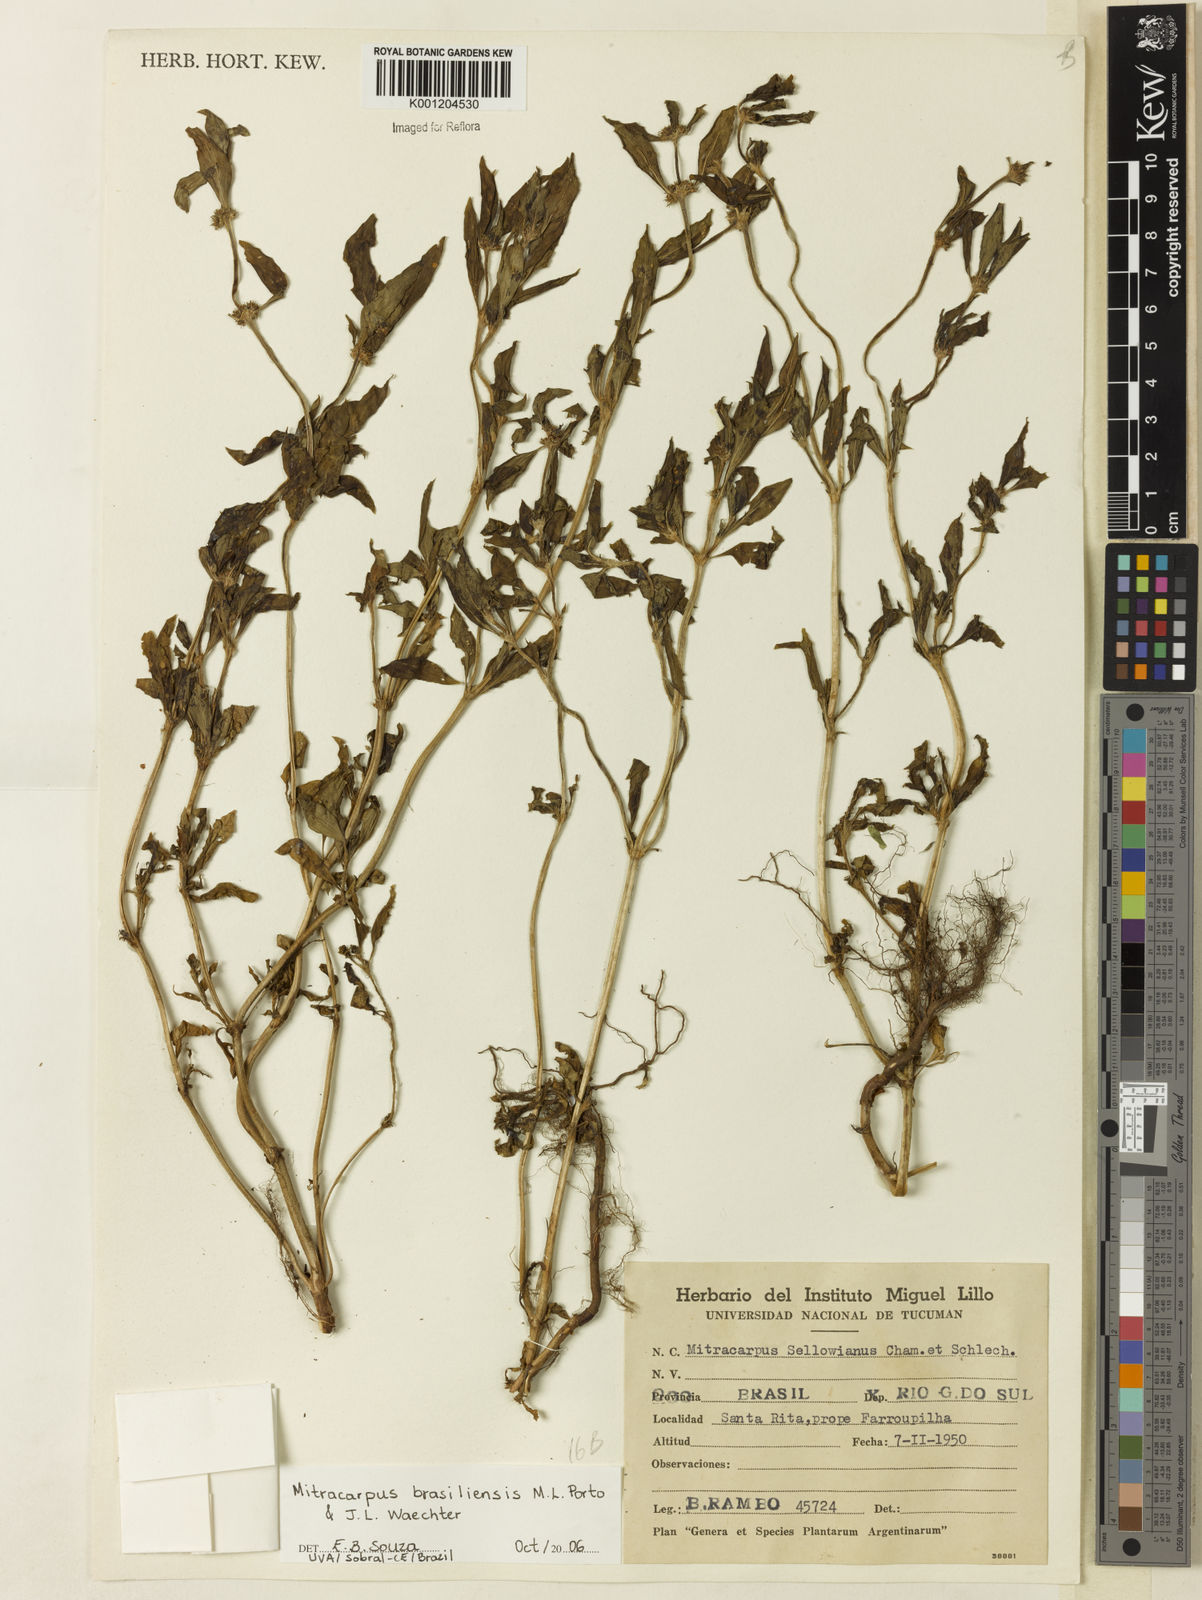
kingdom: Plantae
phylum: Tracheophyta
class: Magnoliopsida
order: Gentianales
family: Rubiaceae
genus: Mitracarpus
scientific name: Mitracarpus brasiliensis
